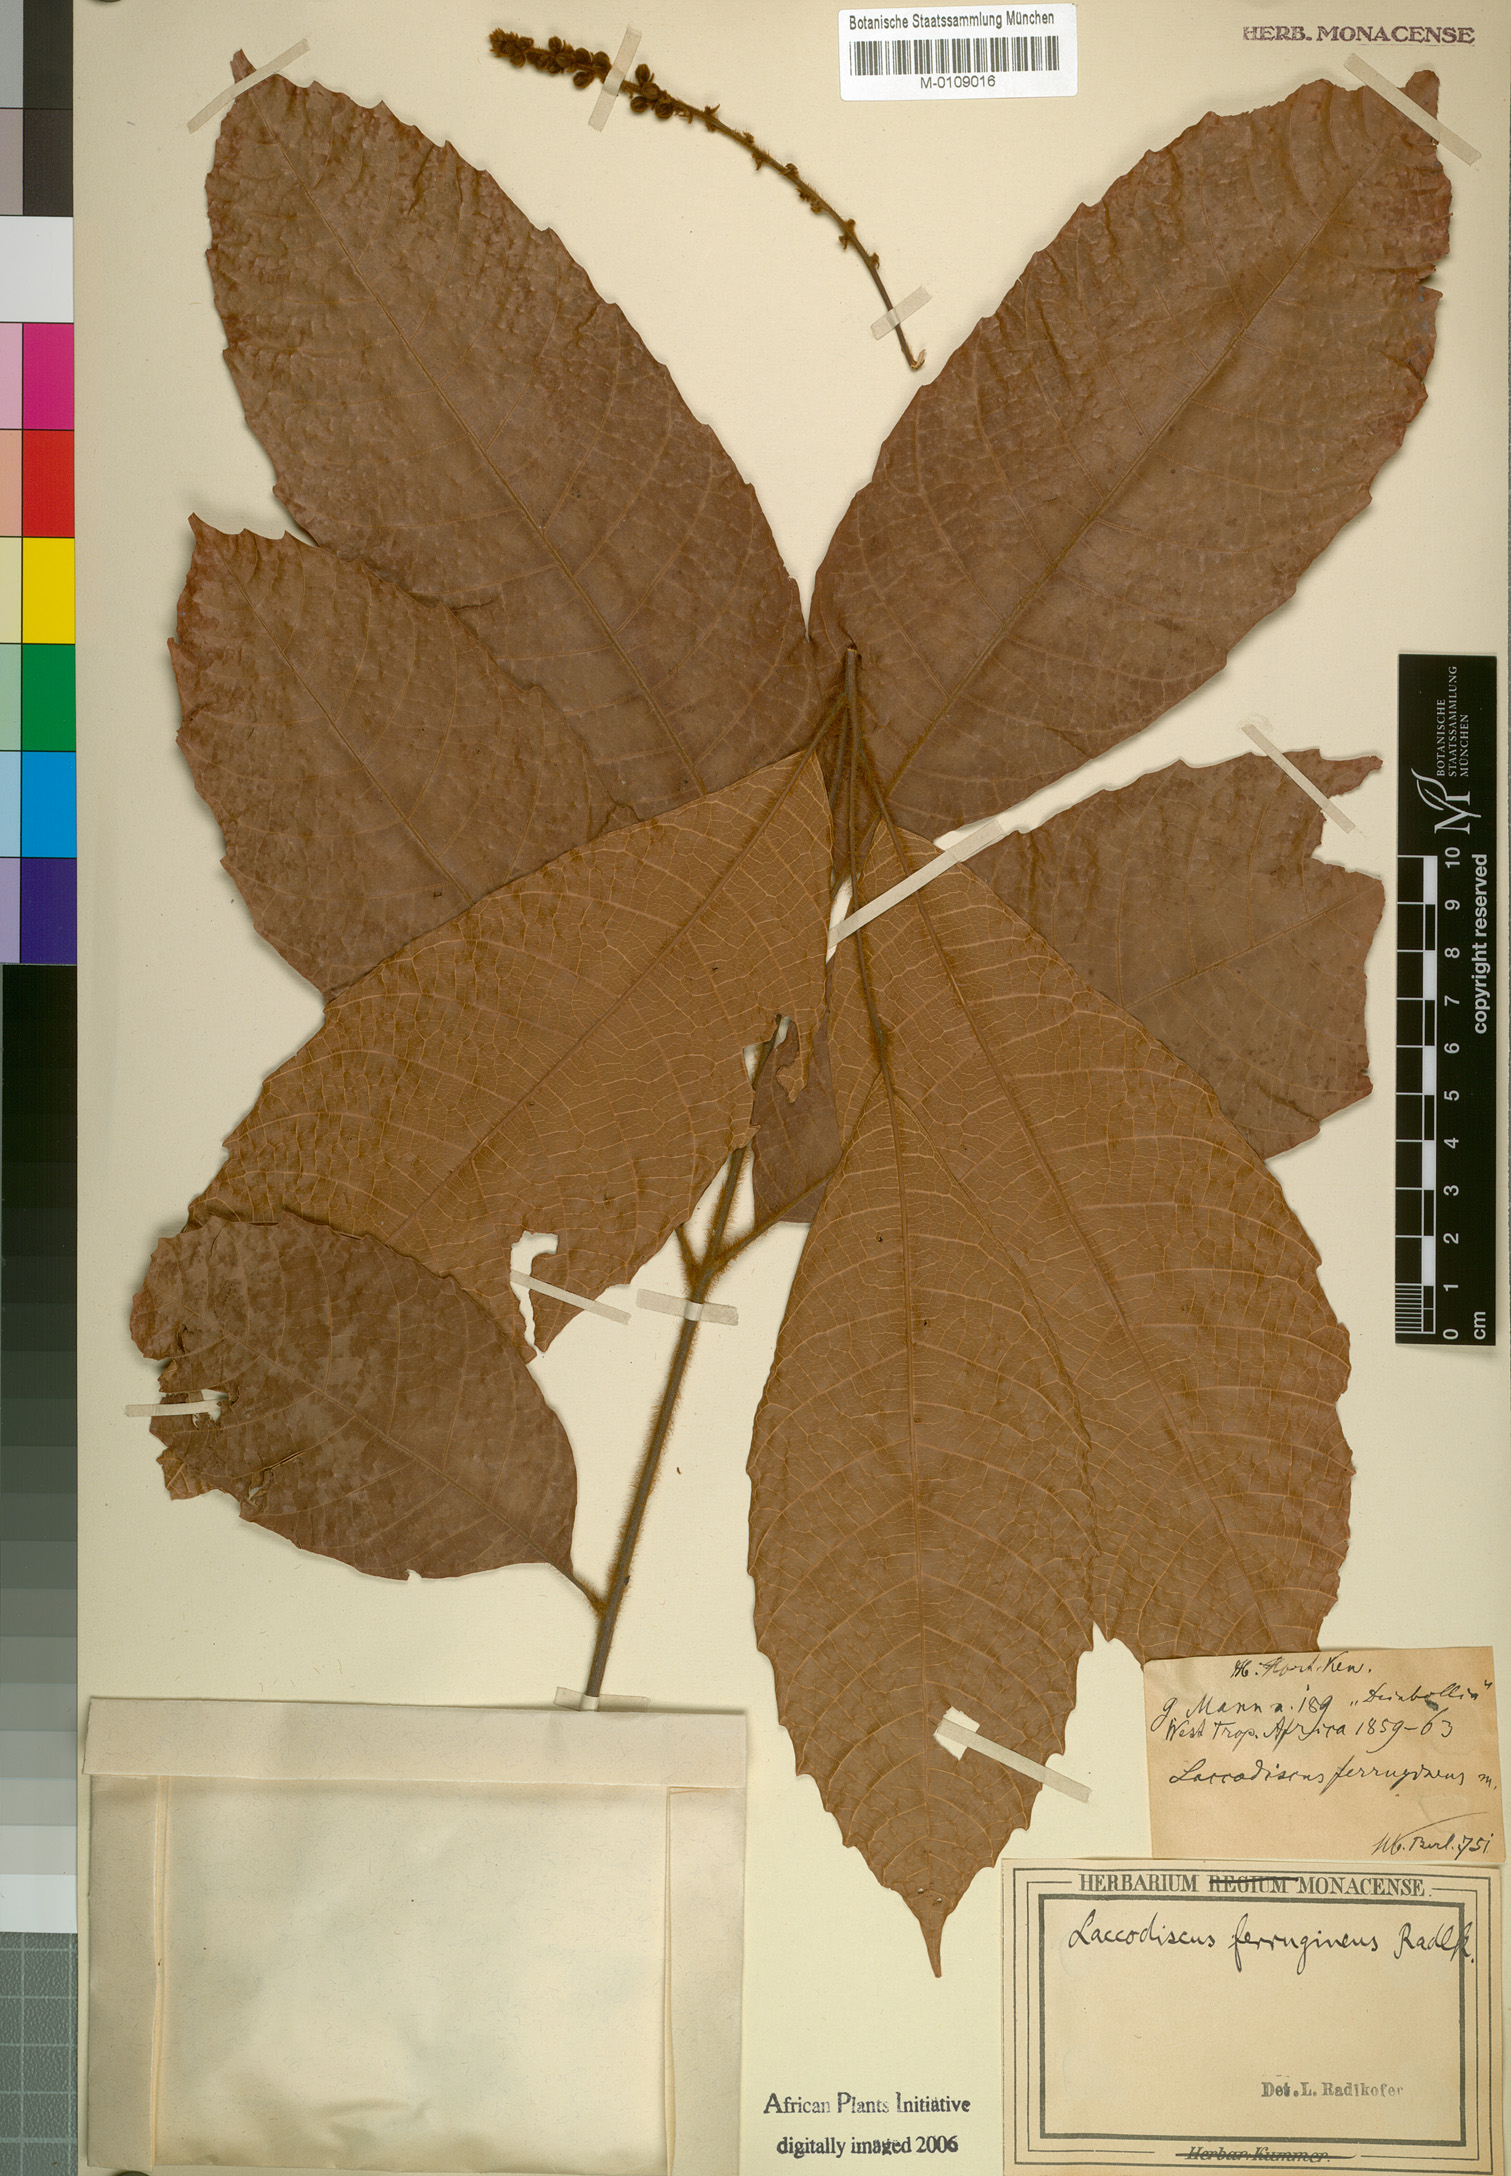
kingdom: Plantae
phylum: Tracheophyta
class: Magnoliopsida
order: Sapindales
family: Sapindaceae
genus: Laccodiscus
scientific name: Laccodiscus ferrugineus
